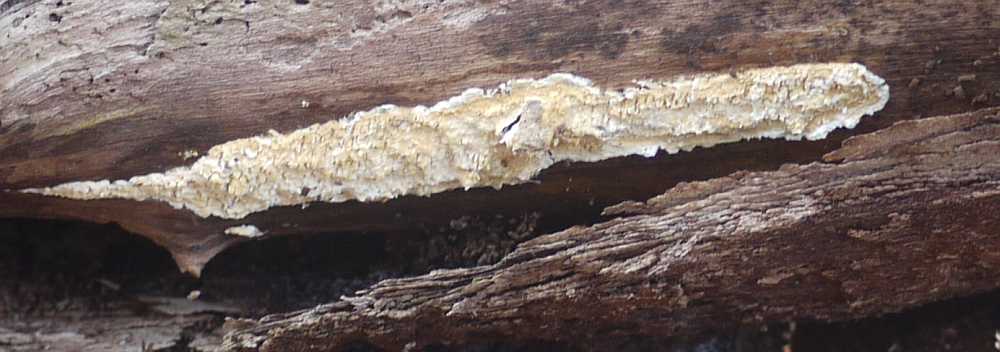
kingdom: Fungi
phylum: Basidiomycota
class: Agaricomycetes
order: Hymenochaetales
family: Schizoporaceae
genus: Xylodon
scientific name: Xylodon radula
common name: grovtandet kalkskind
